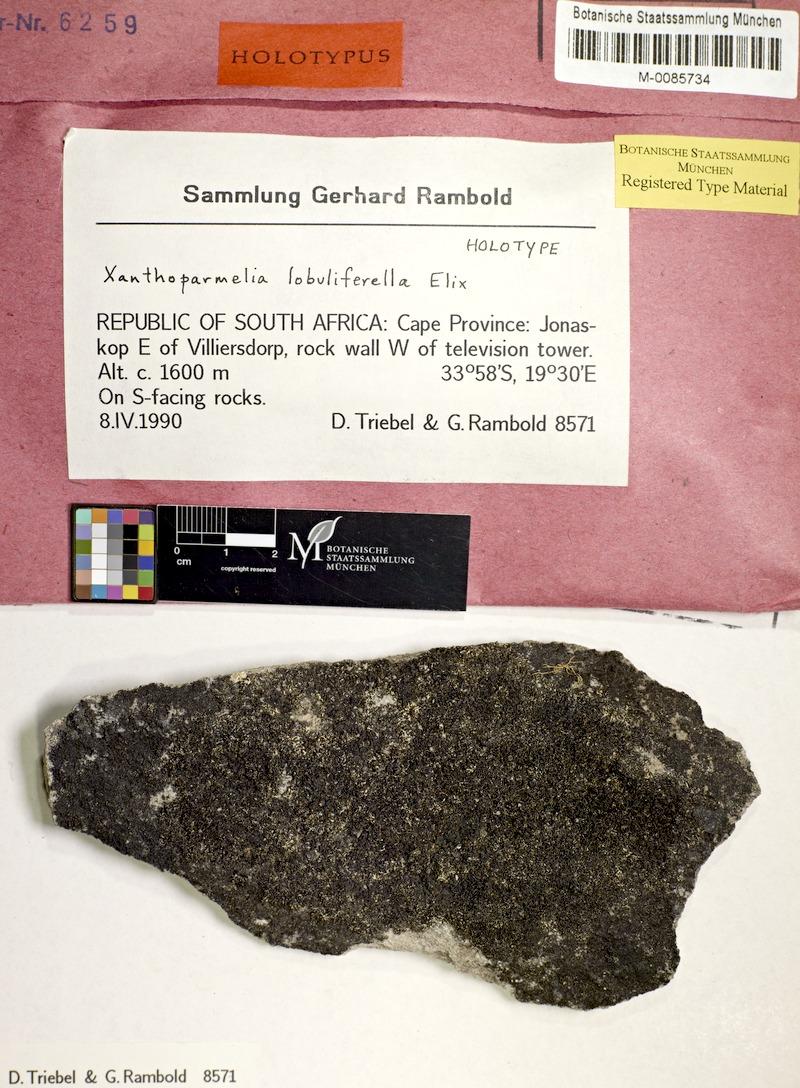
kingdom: Fungi
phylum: Ascomycota
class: Lecanoromycetes
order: Lecanorales
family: Parmeliaceae
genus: Xanthoparmelia
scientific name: Xanthoparmelia lobuliferella
